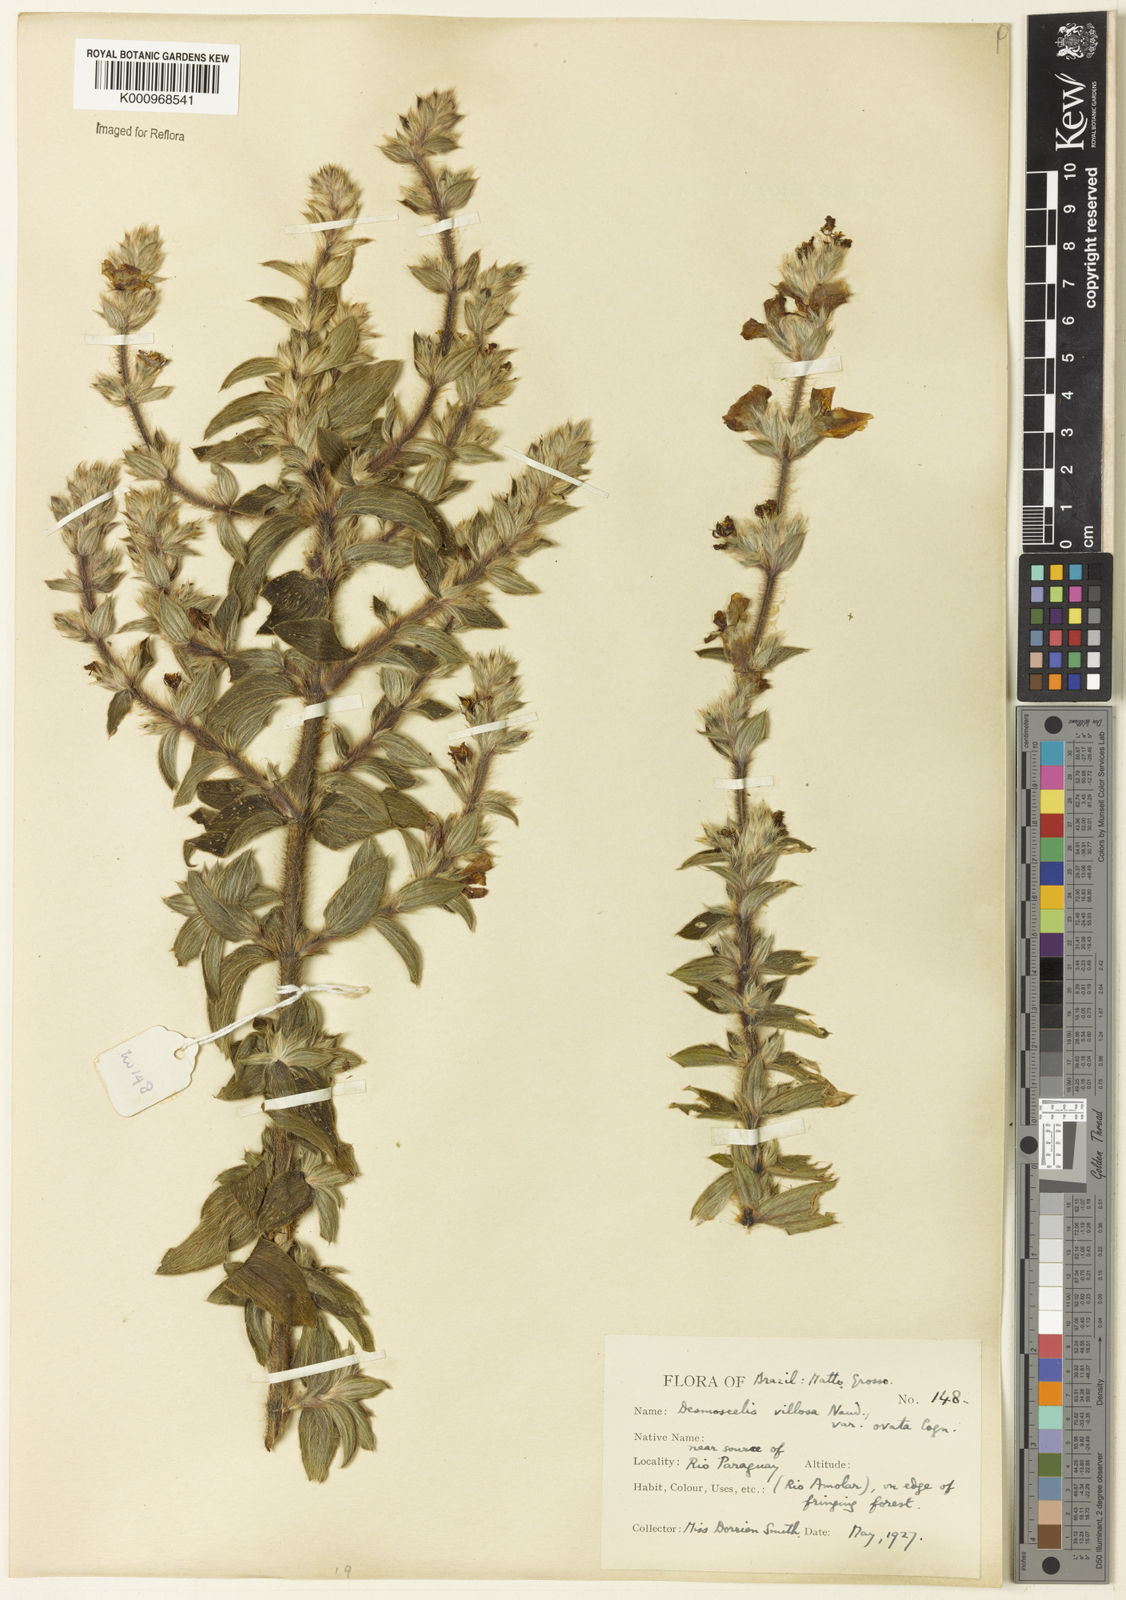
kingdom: Plantae
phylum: Tracheophyta
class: Magnoliopsida
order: Myrtales
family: Melastomataceae
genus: Desmoscelis
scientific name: Desmoscelis villosa
